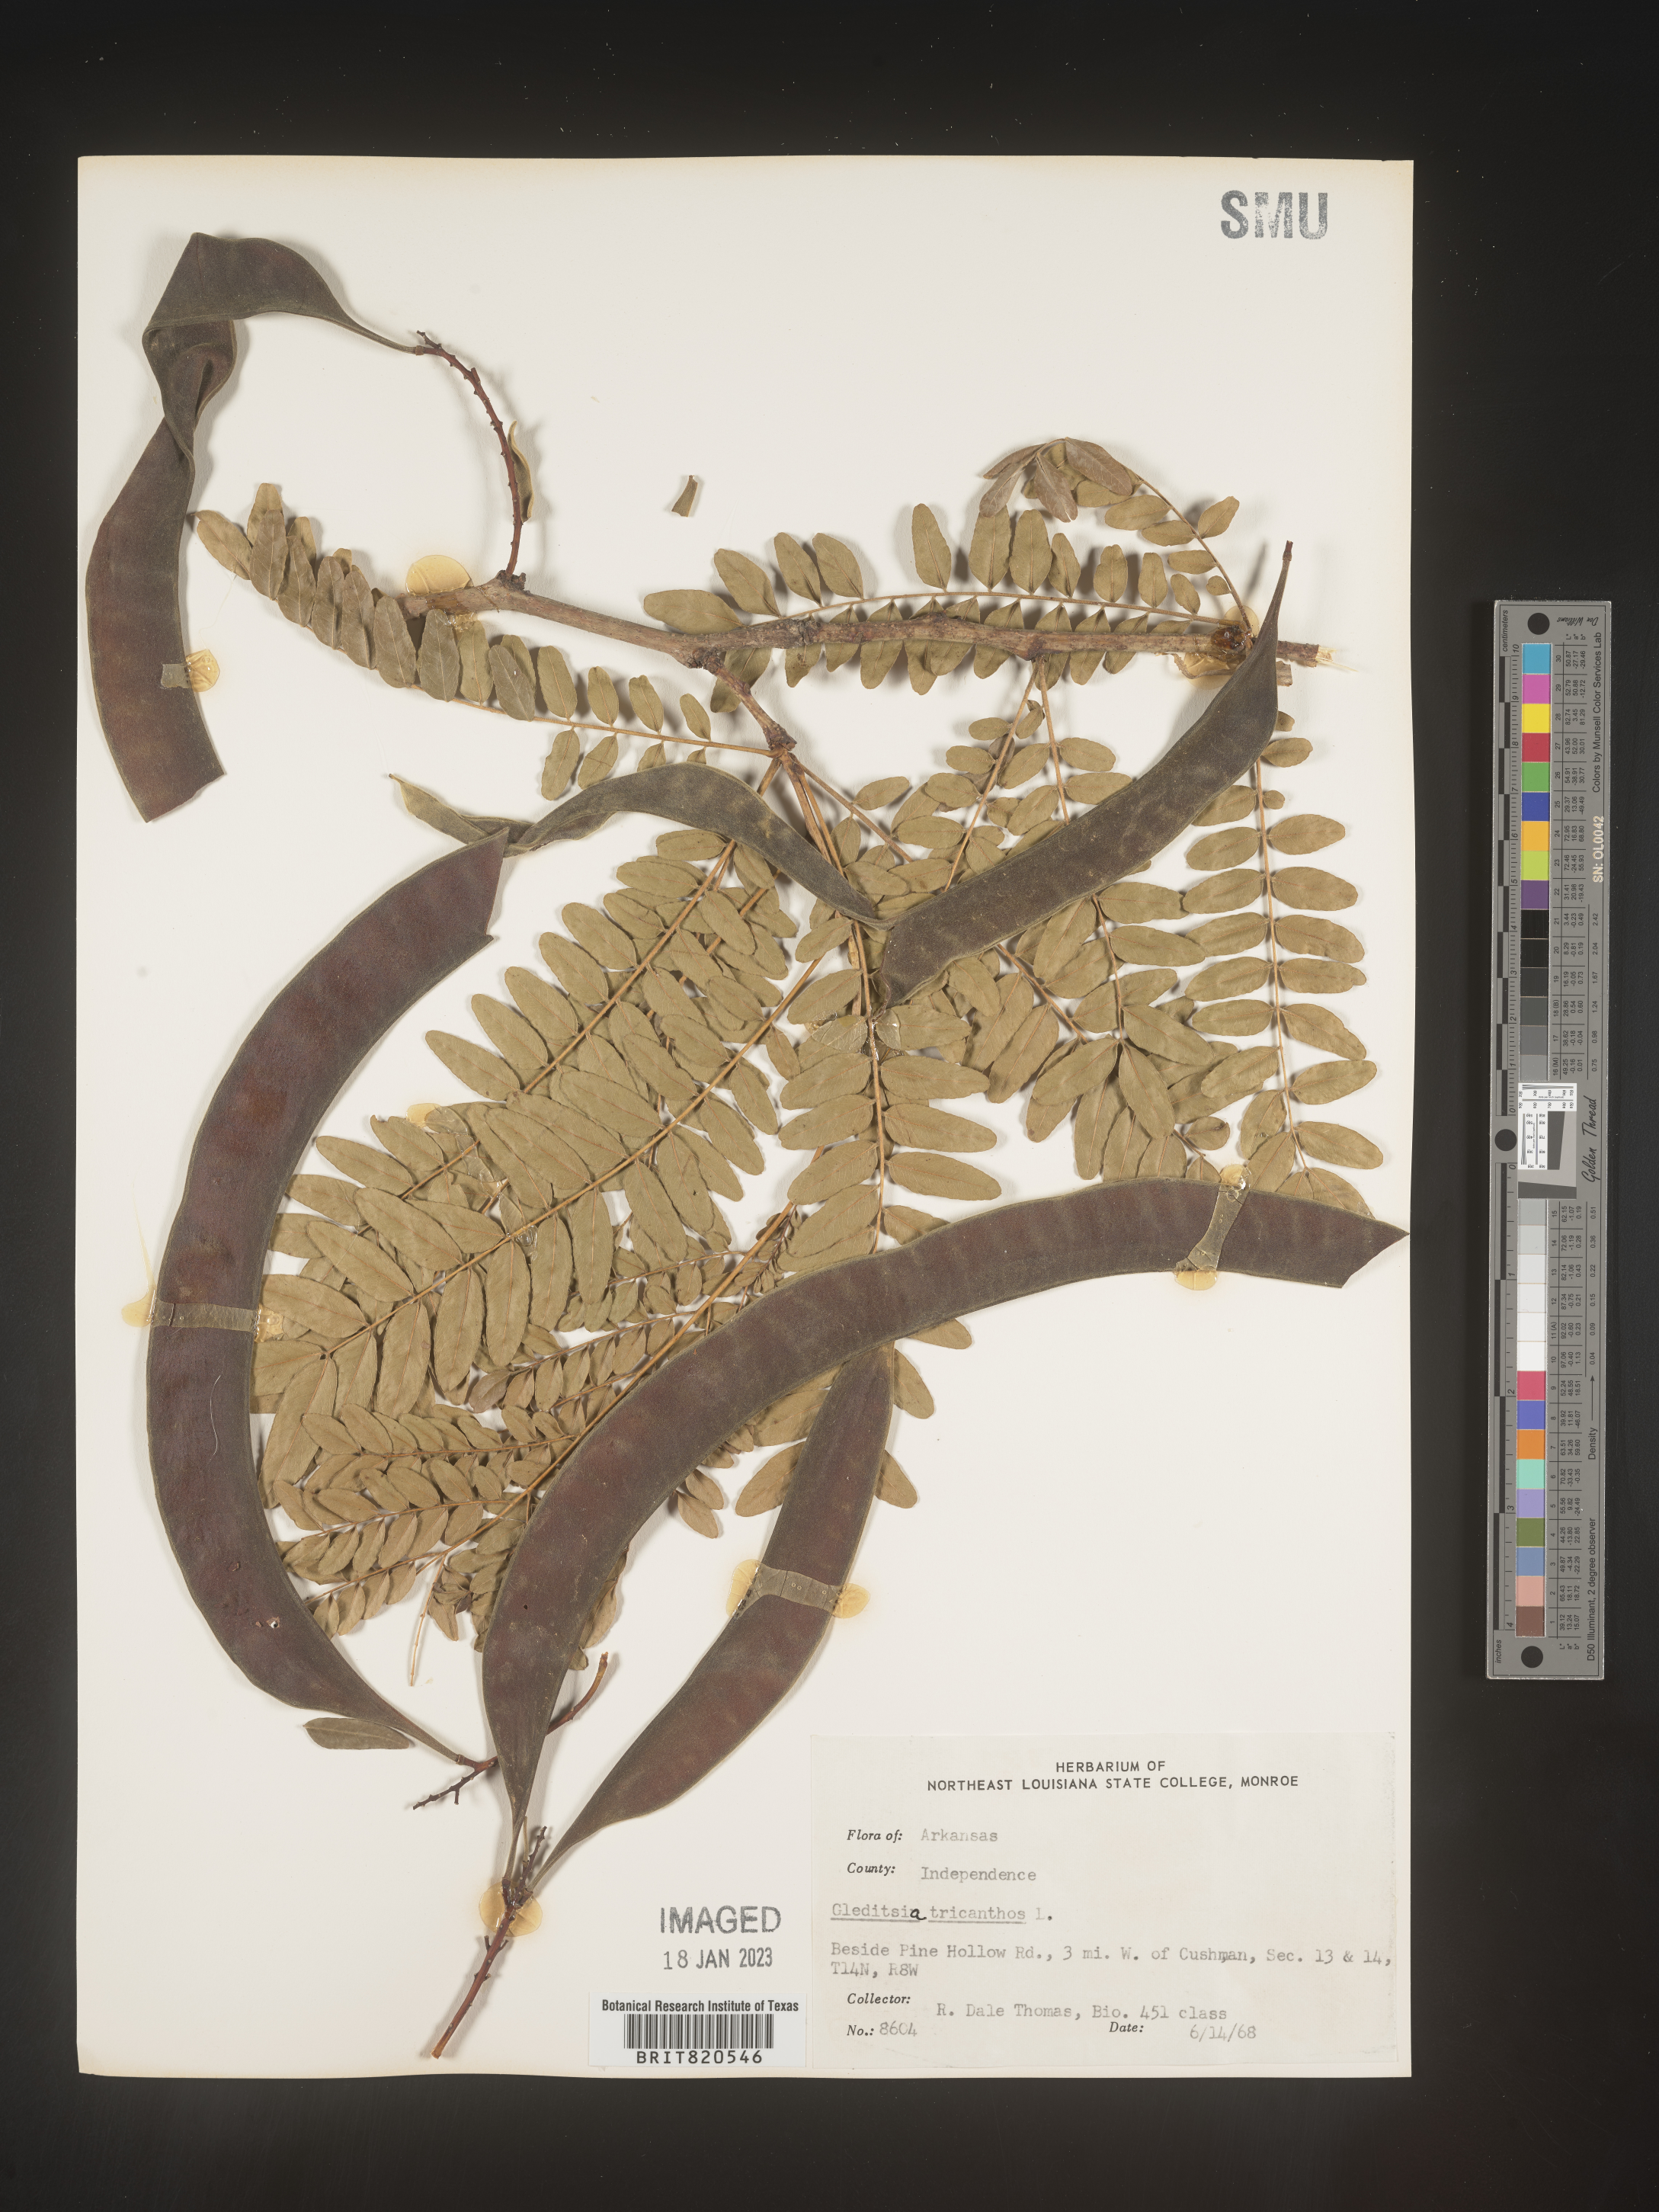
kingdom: Plantae
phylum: Tracheophyta
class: Magnoliopsida
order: Fabales
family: Fabaceae
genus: Gleditsia
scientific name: Gleditsia triacanthos
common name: Common honeylocust
